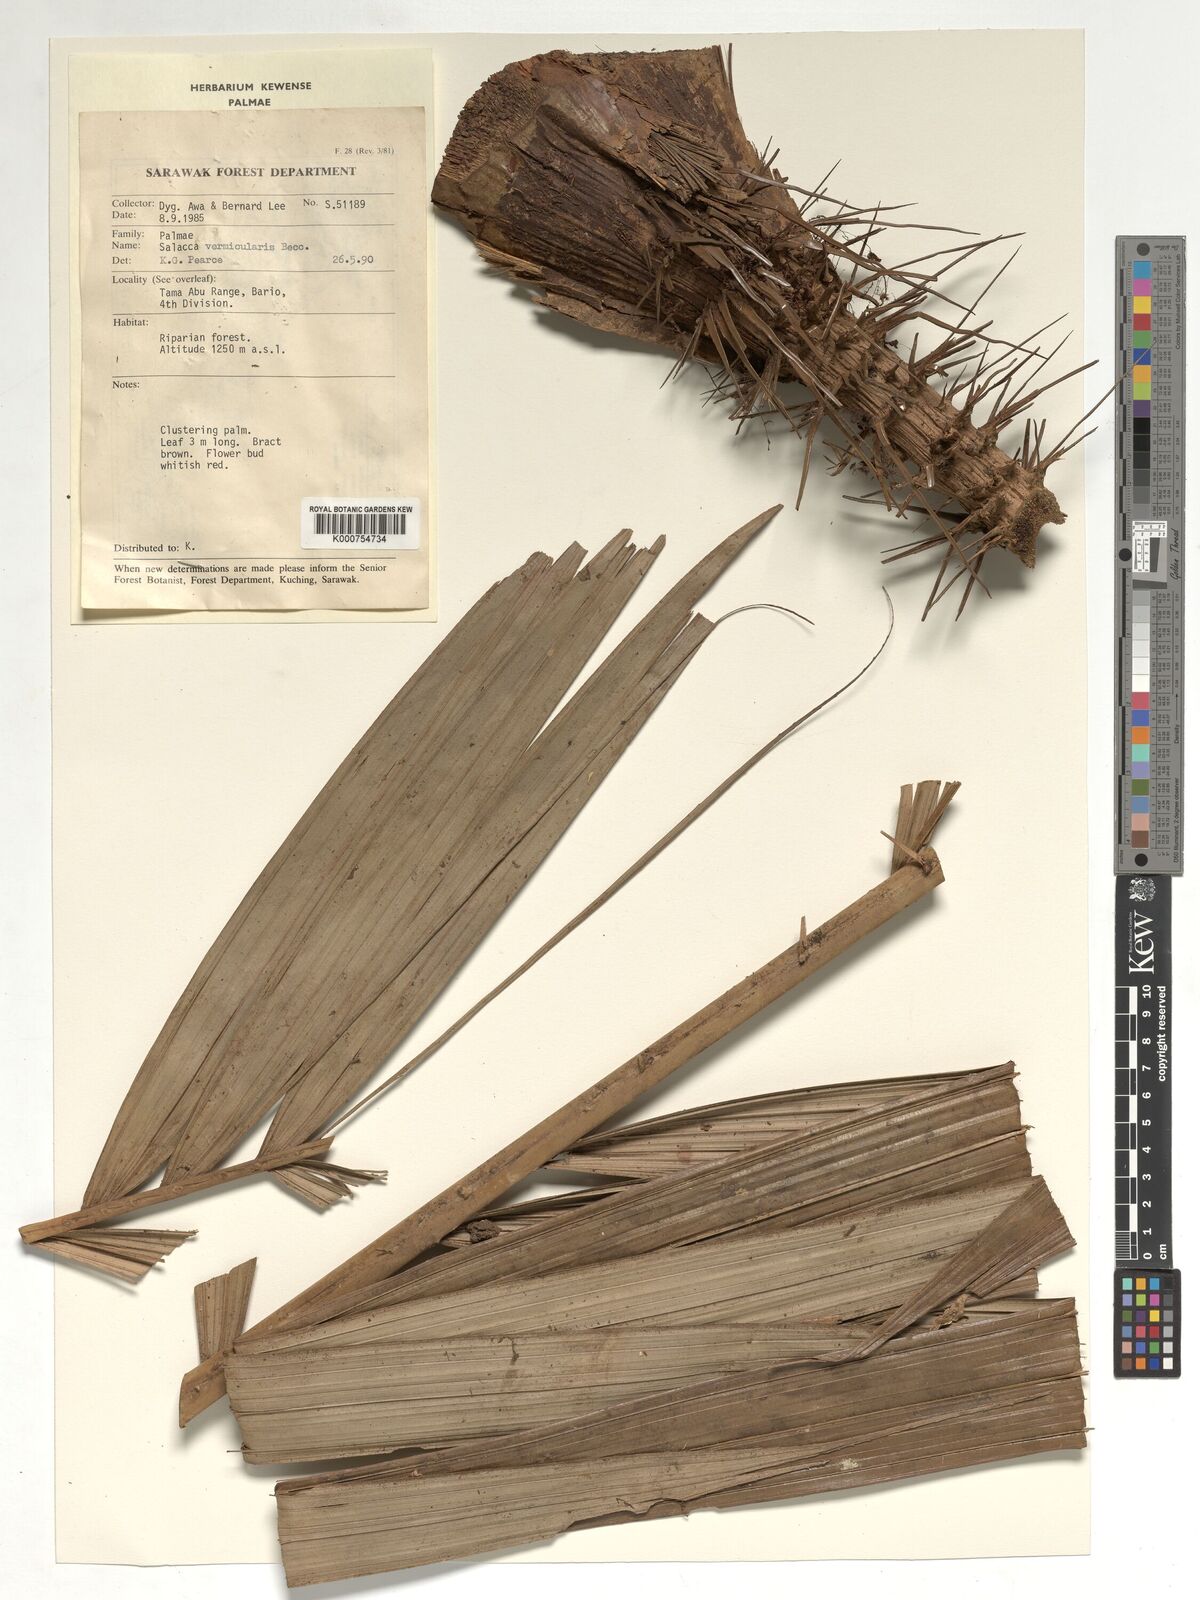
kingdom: Plantae
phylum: Tracheophyta
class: Liliopsida
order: Arecales
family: Arecaceae
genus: Salacca
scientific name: Salacca vermicularis
